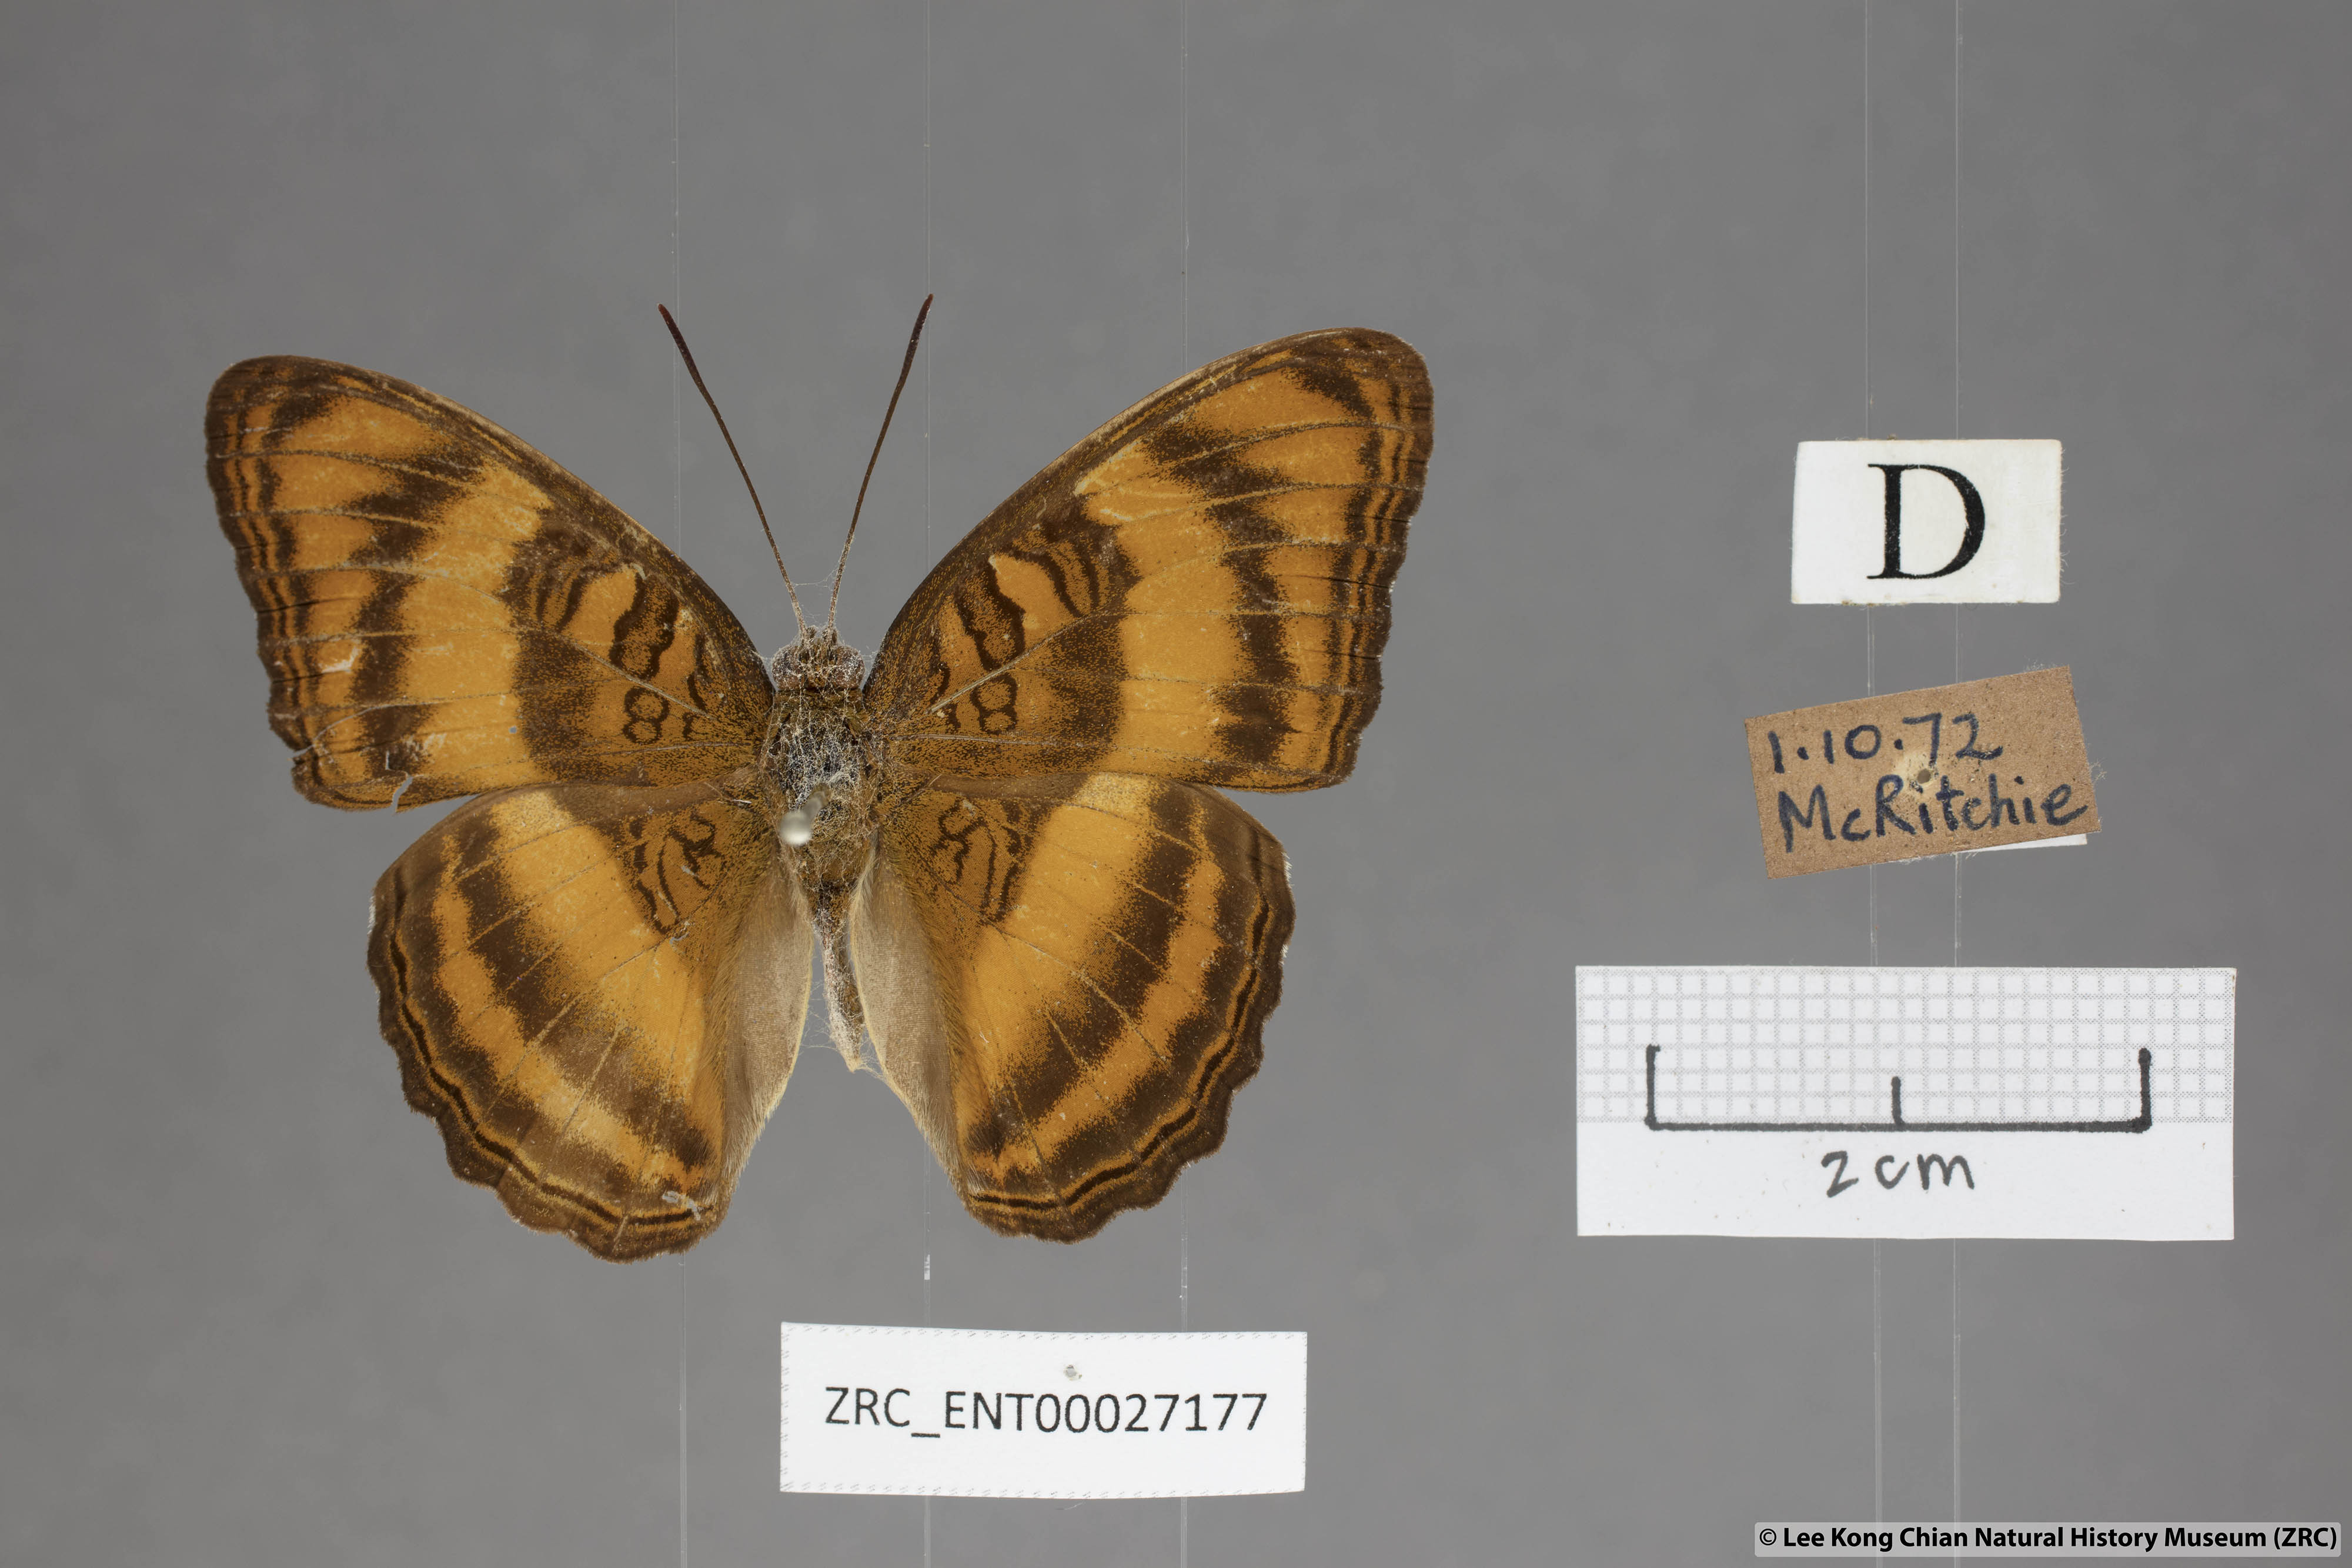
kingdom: Animalia
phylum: Arthropoda
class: Insecta
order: Lepidoptera
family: Nymphalidae
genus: Pandita
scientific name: Pandita sinope
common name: Colonel
